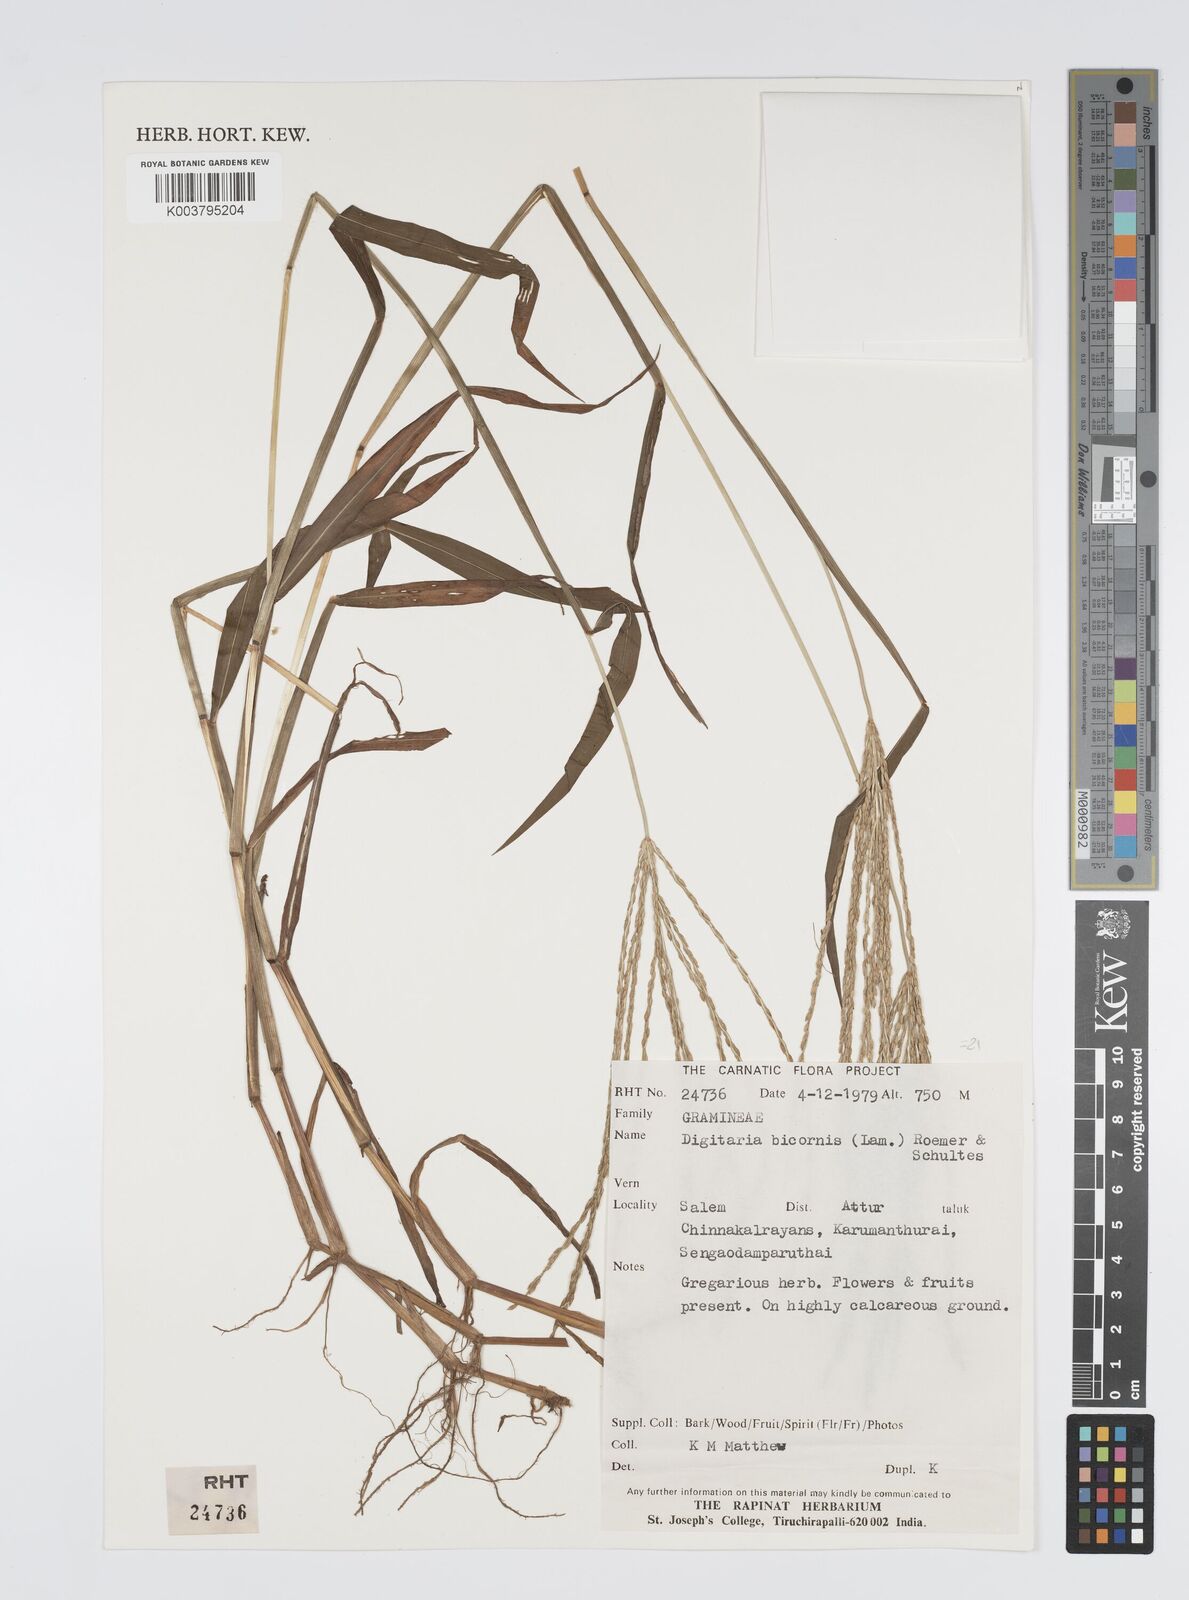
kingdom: Plantae
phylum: Tracheophyta
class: Liliopsida
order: Poales
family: Poaceae
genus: Digitaria
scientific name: Digitaria ciliaris
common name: Tropical finger-grass
